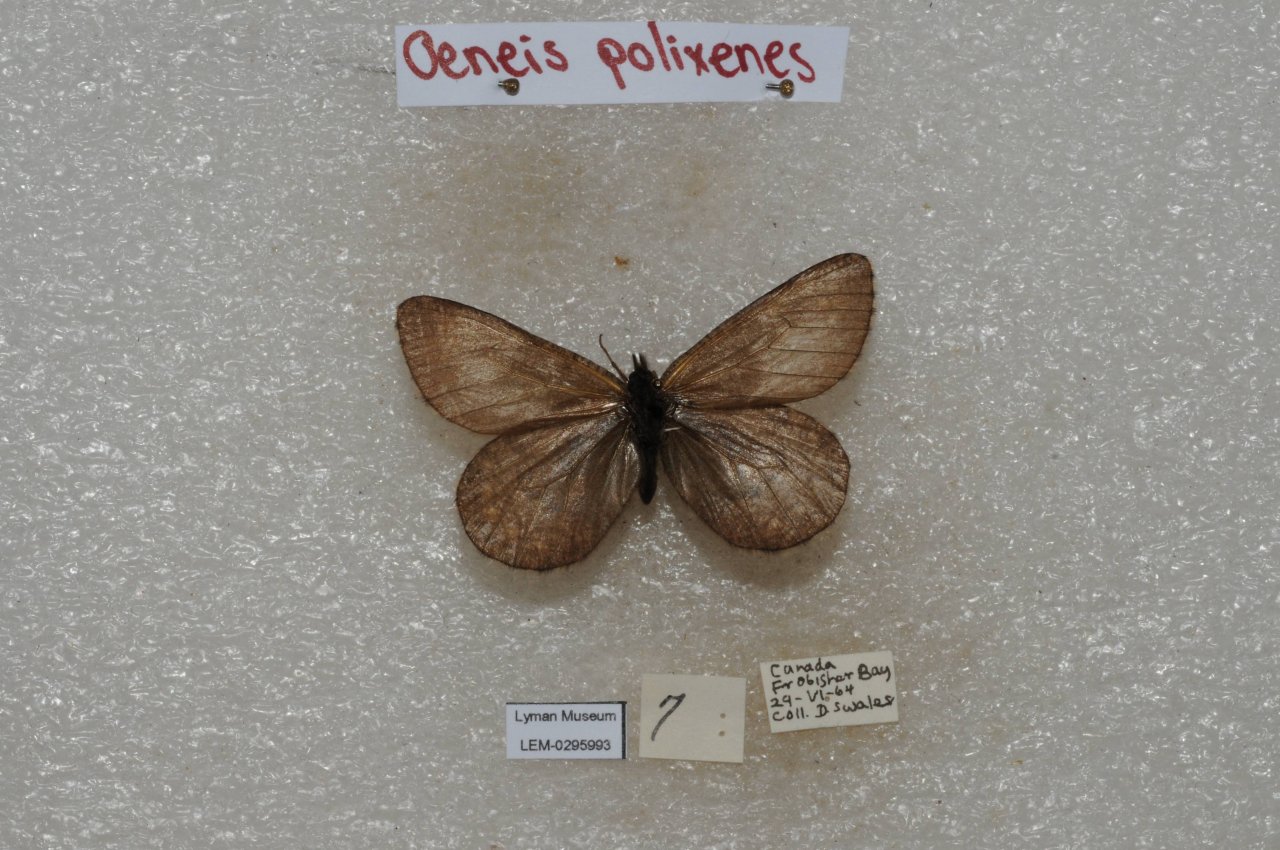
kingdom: Animalia
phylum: Arthropoda
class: Insecta
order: Lepidoptera
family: Nymphalidae
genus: Oeneis
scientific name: Oeneis bore
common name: Polixenes Arctic
